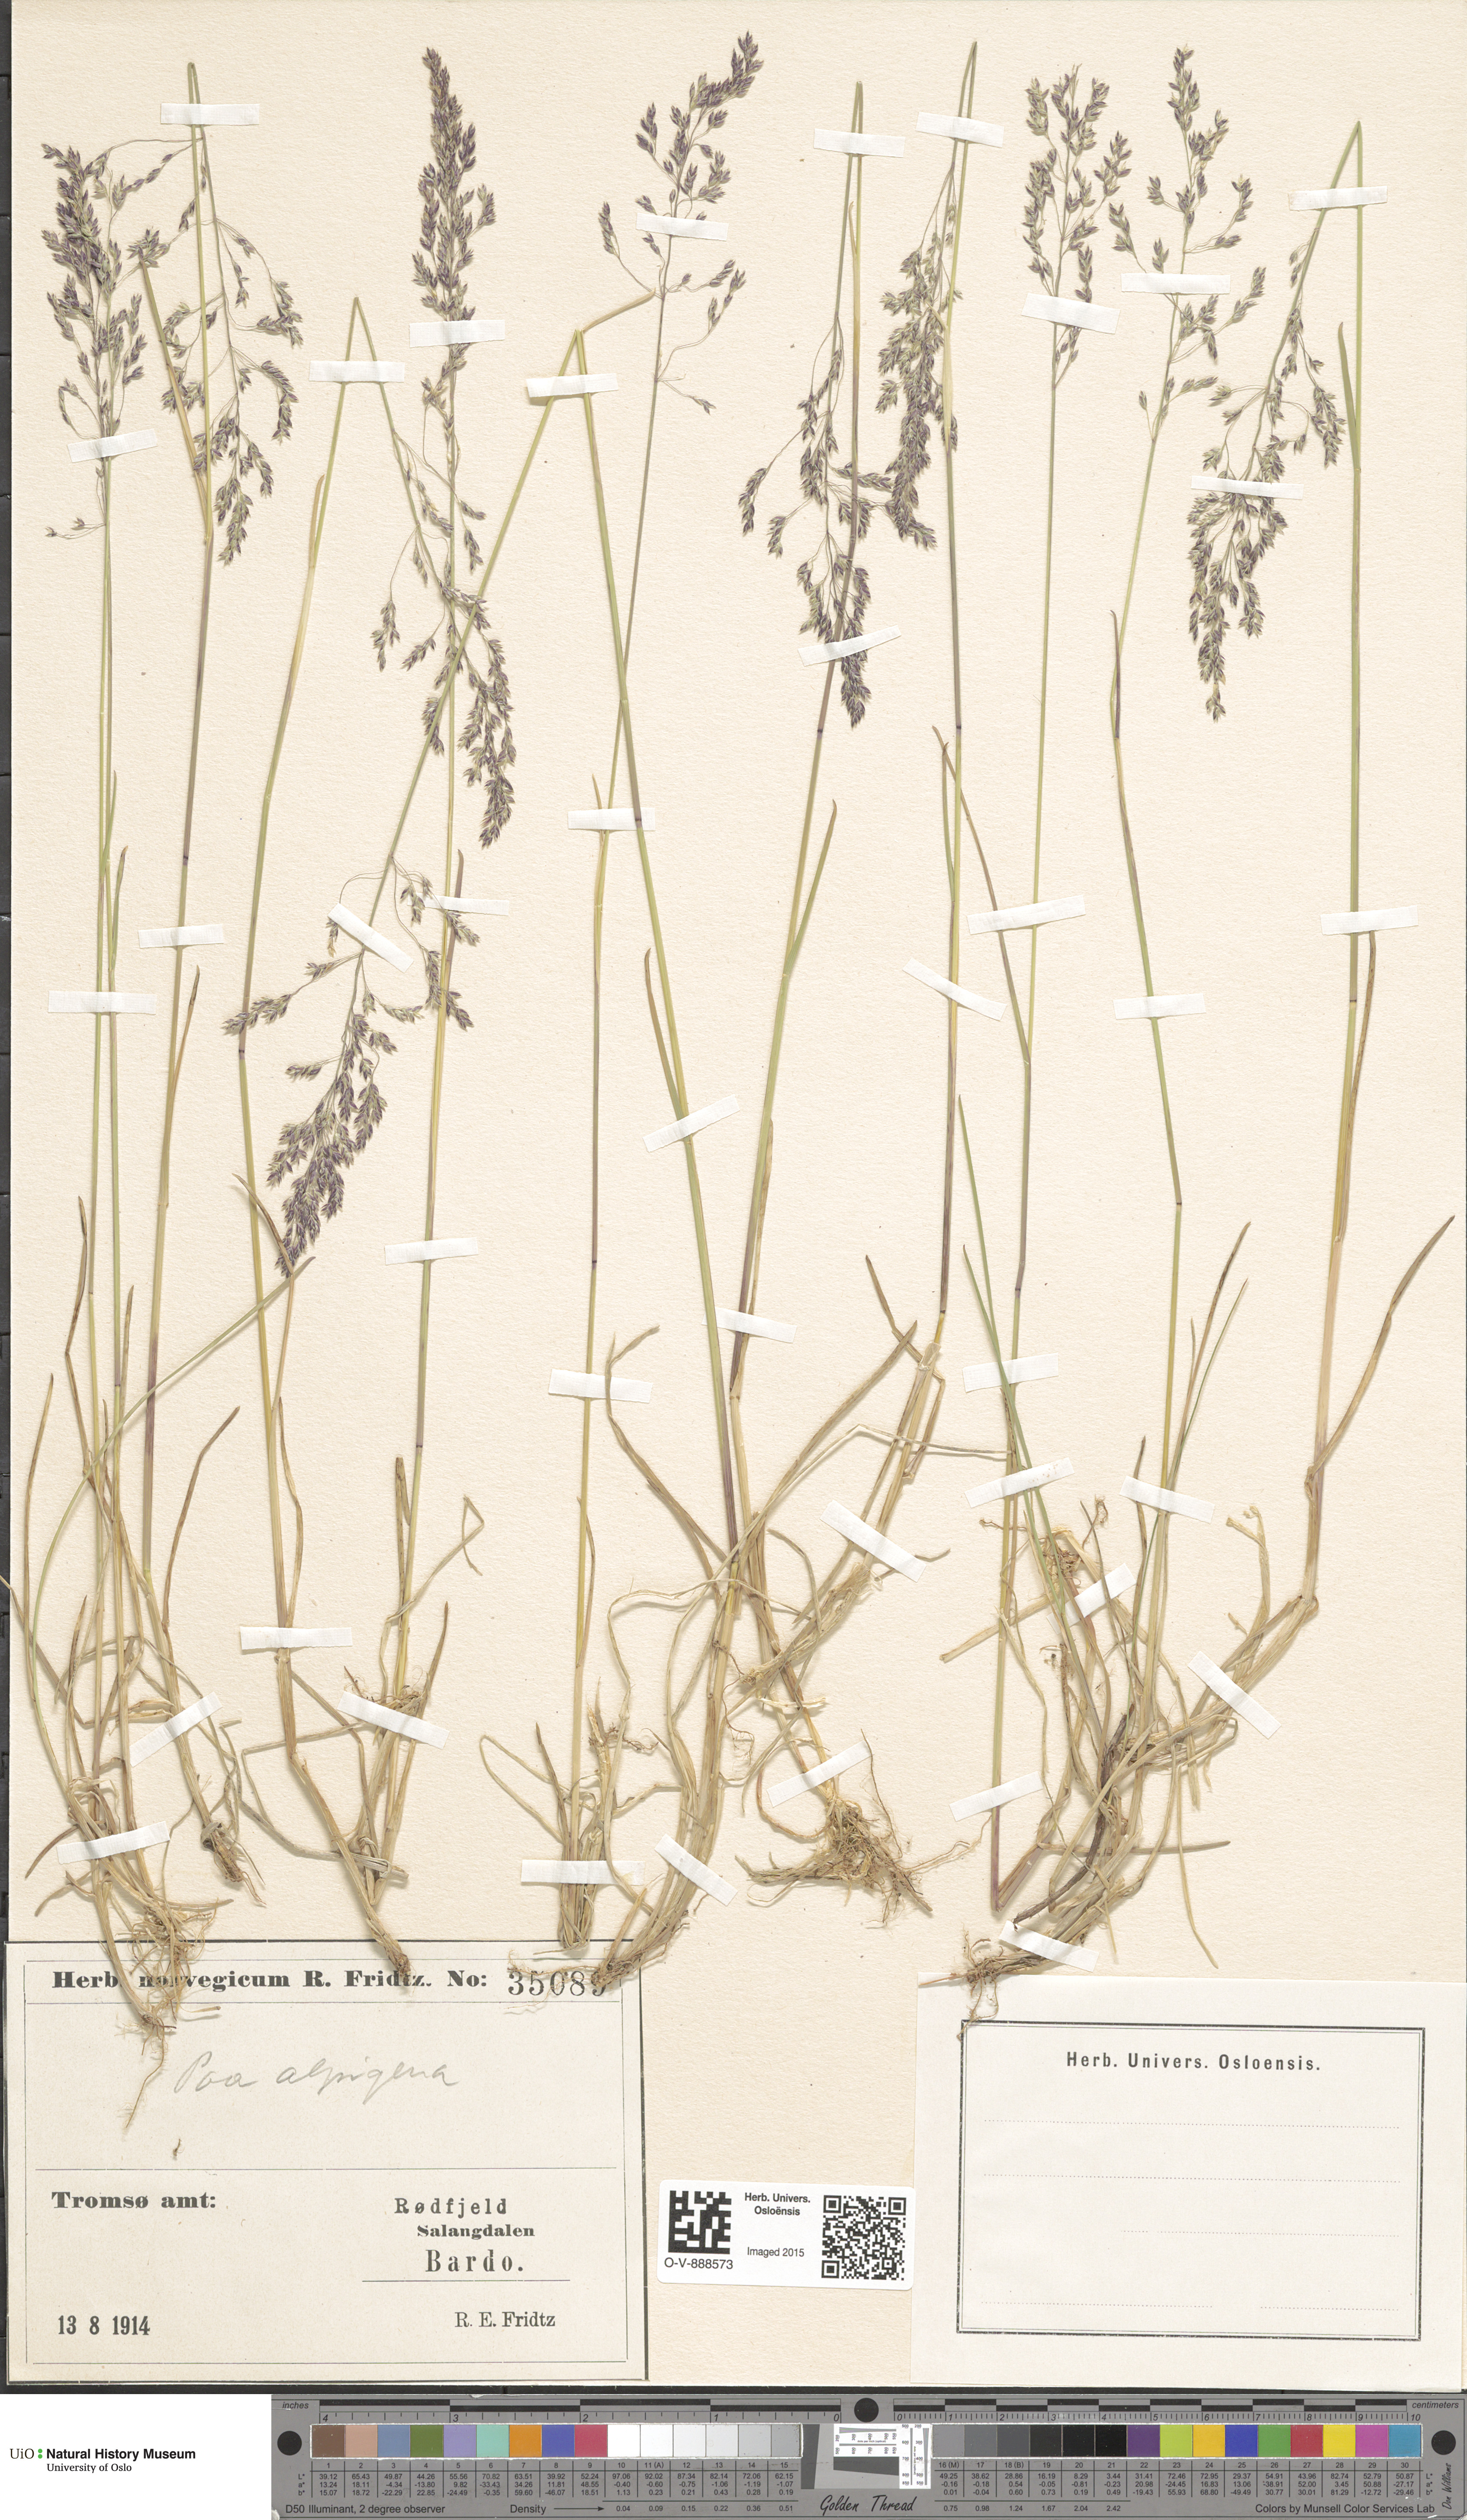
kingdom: Plantae
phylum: Tracheophyta
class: Liliopsida
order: Poales
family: Poaceae
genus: Poa
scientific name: Poa alpigena
